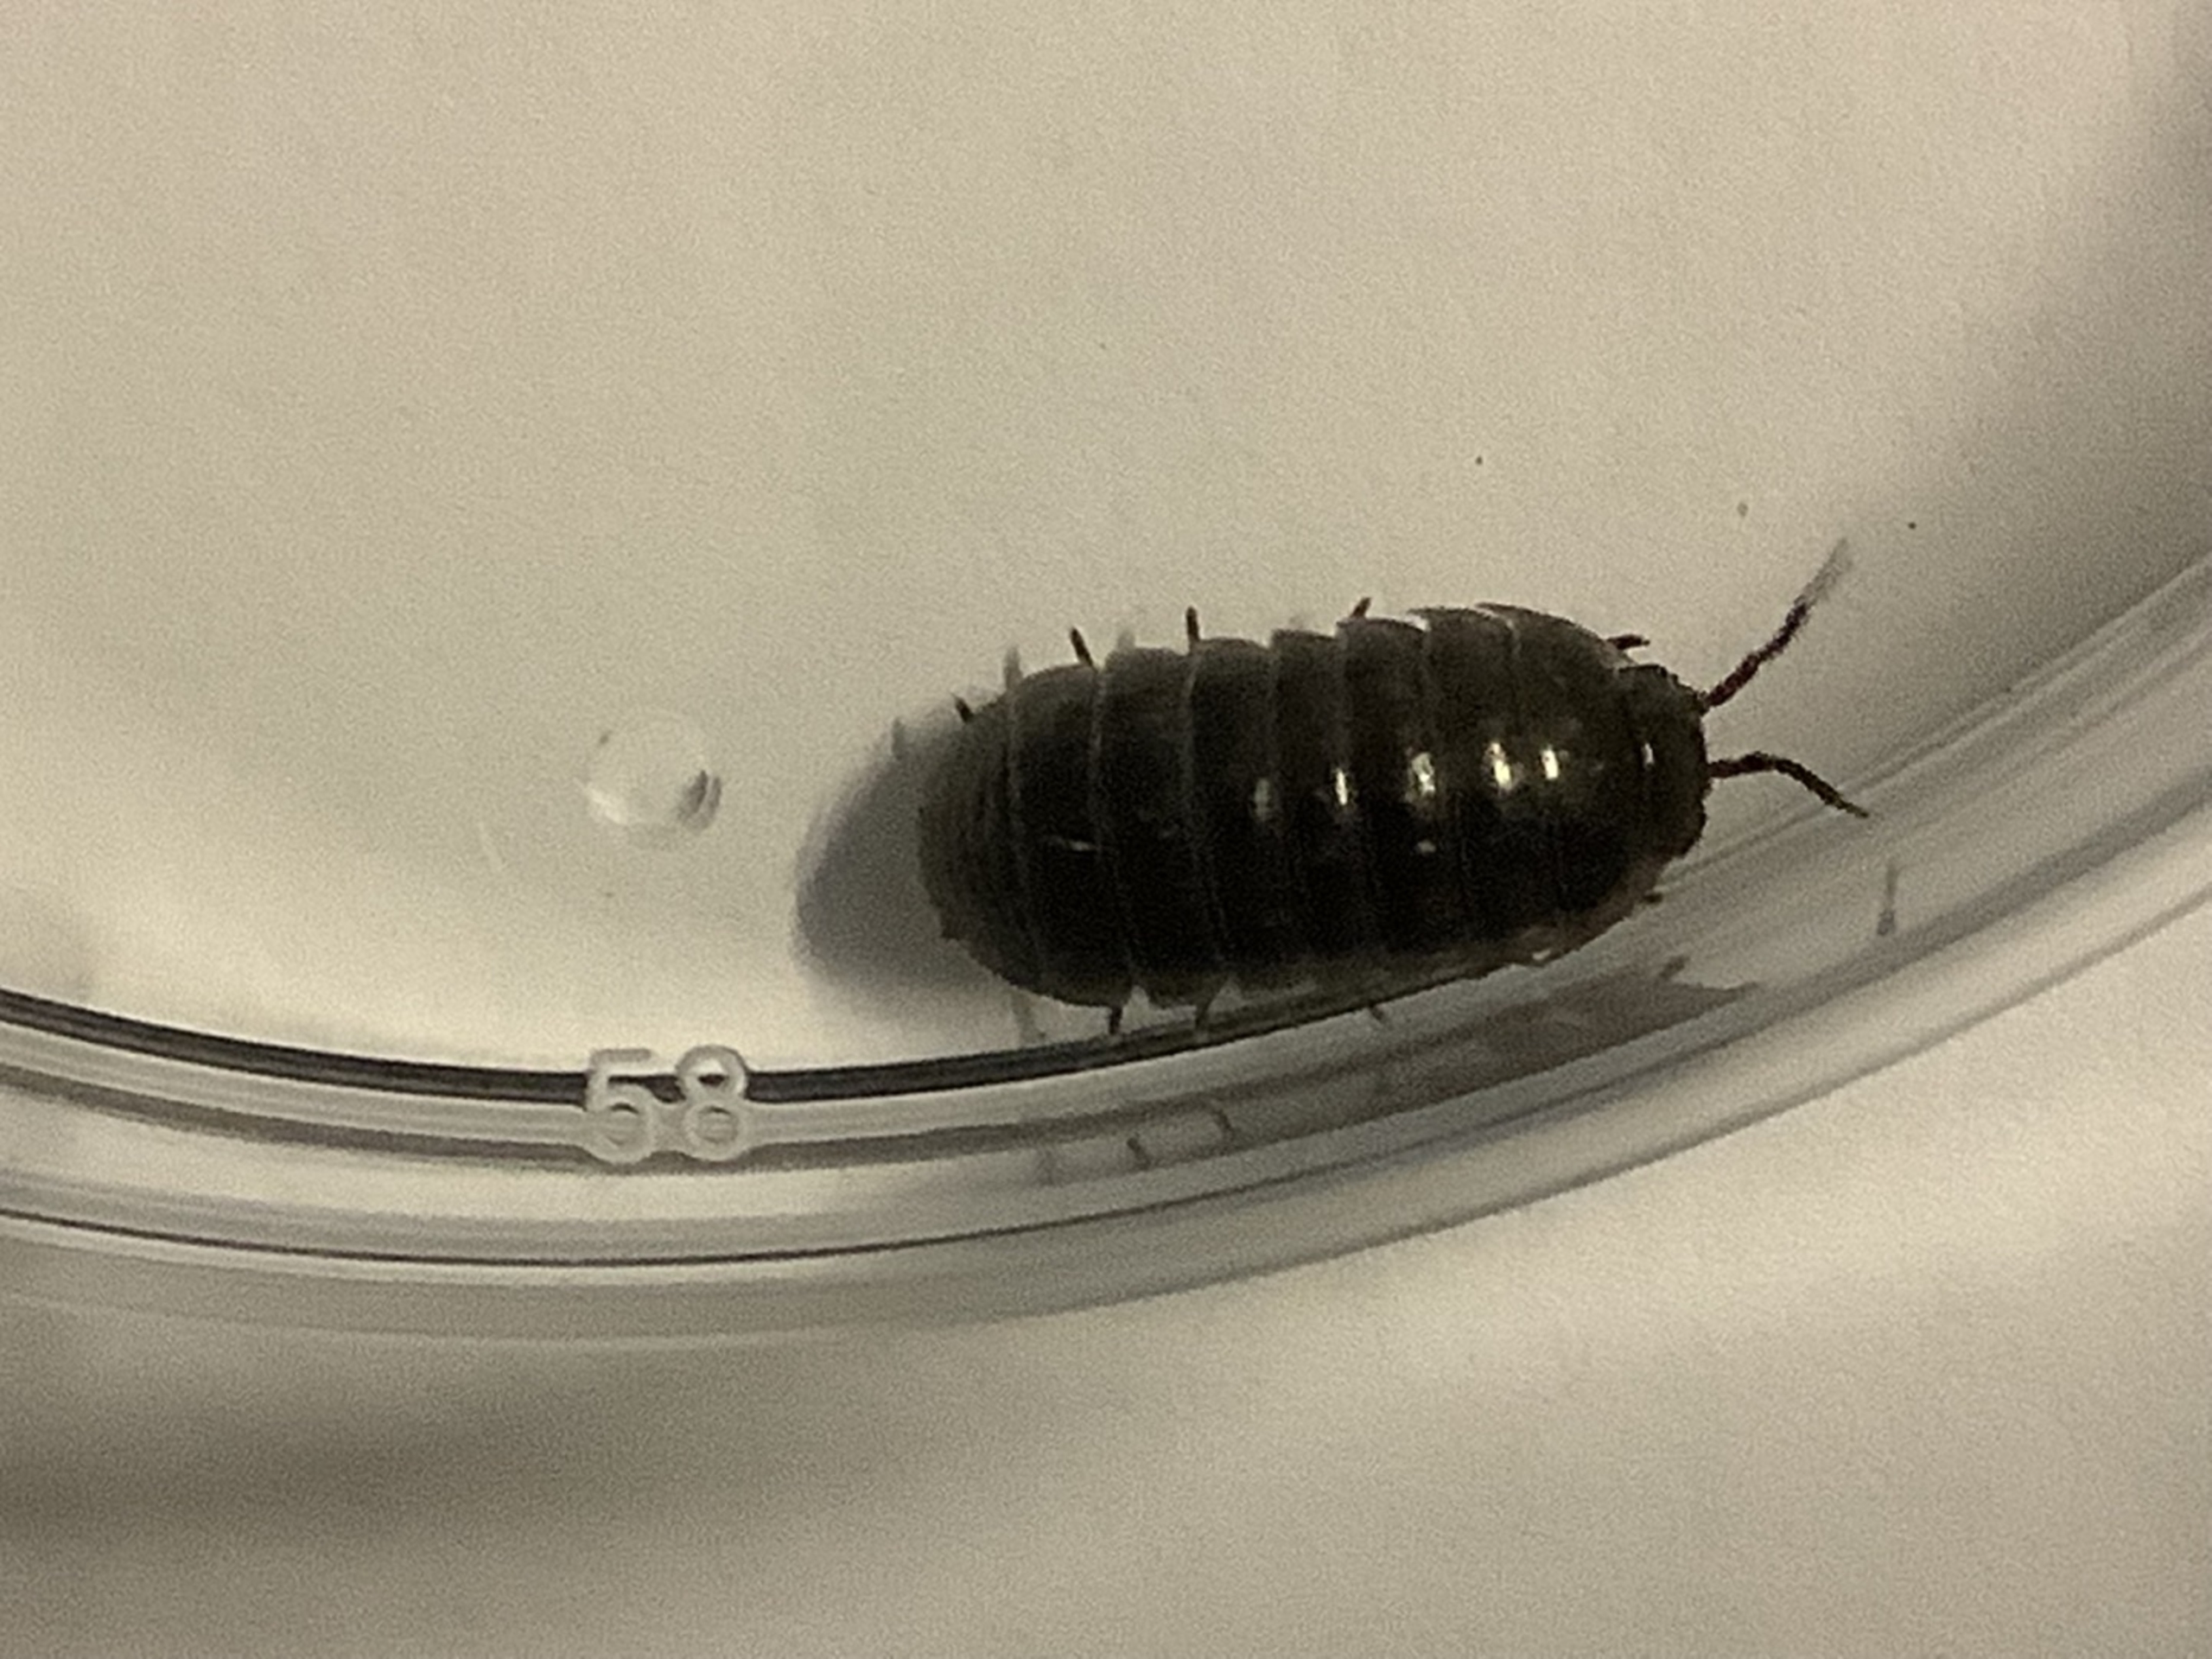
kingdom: Animalia
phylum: Arthropoda
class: Malacostraca
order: Isopoda
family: Armadillidiidae
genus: Armadillidium
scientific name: Armadillidium vulgare
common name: Almindelig kuglebænkebider
